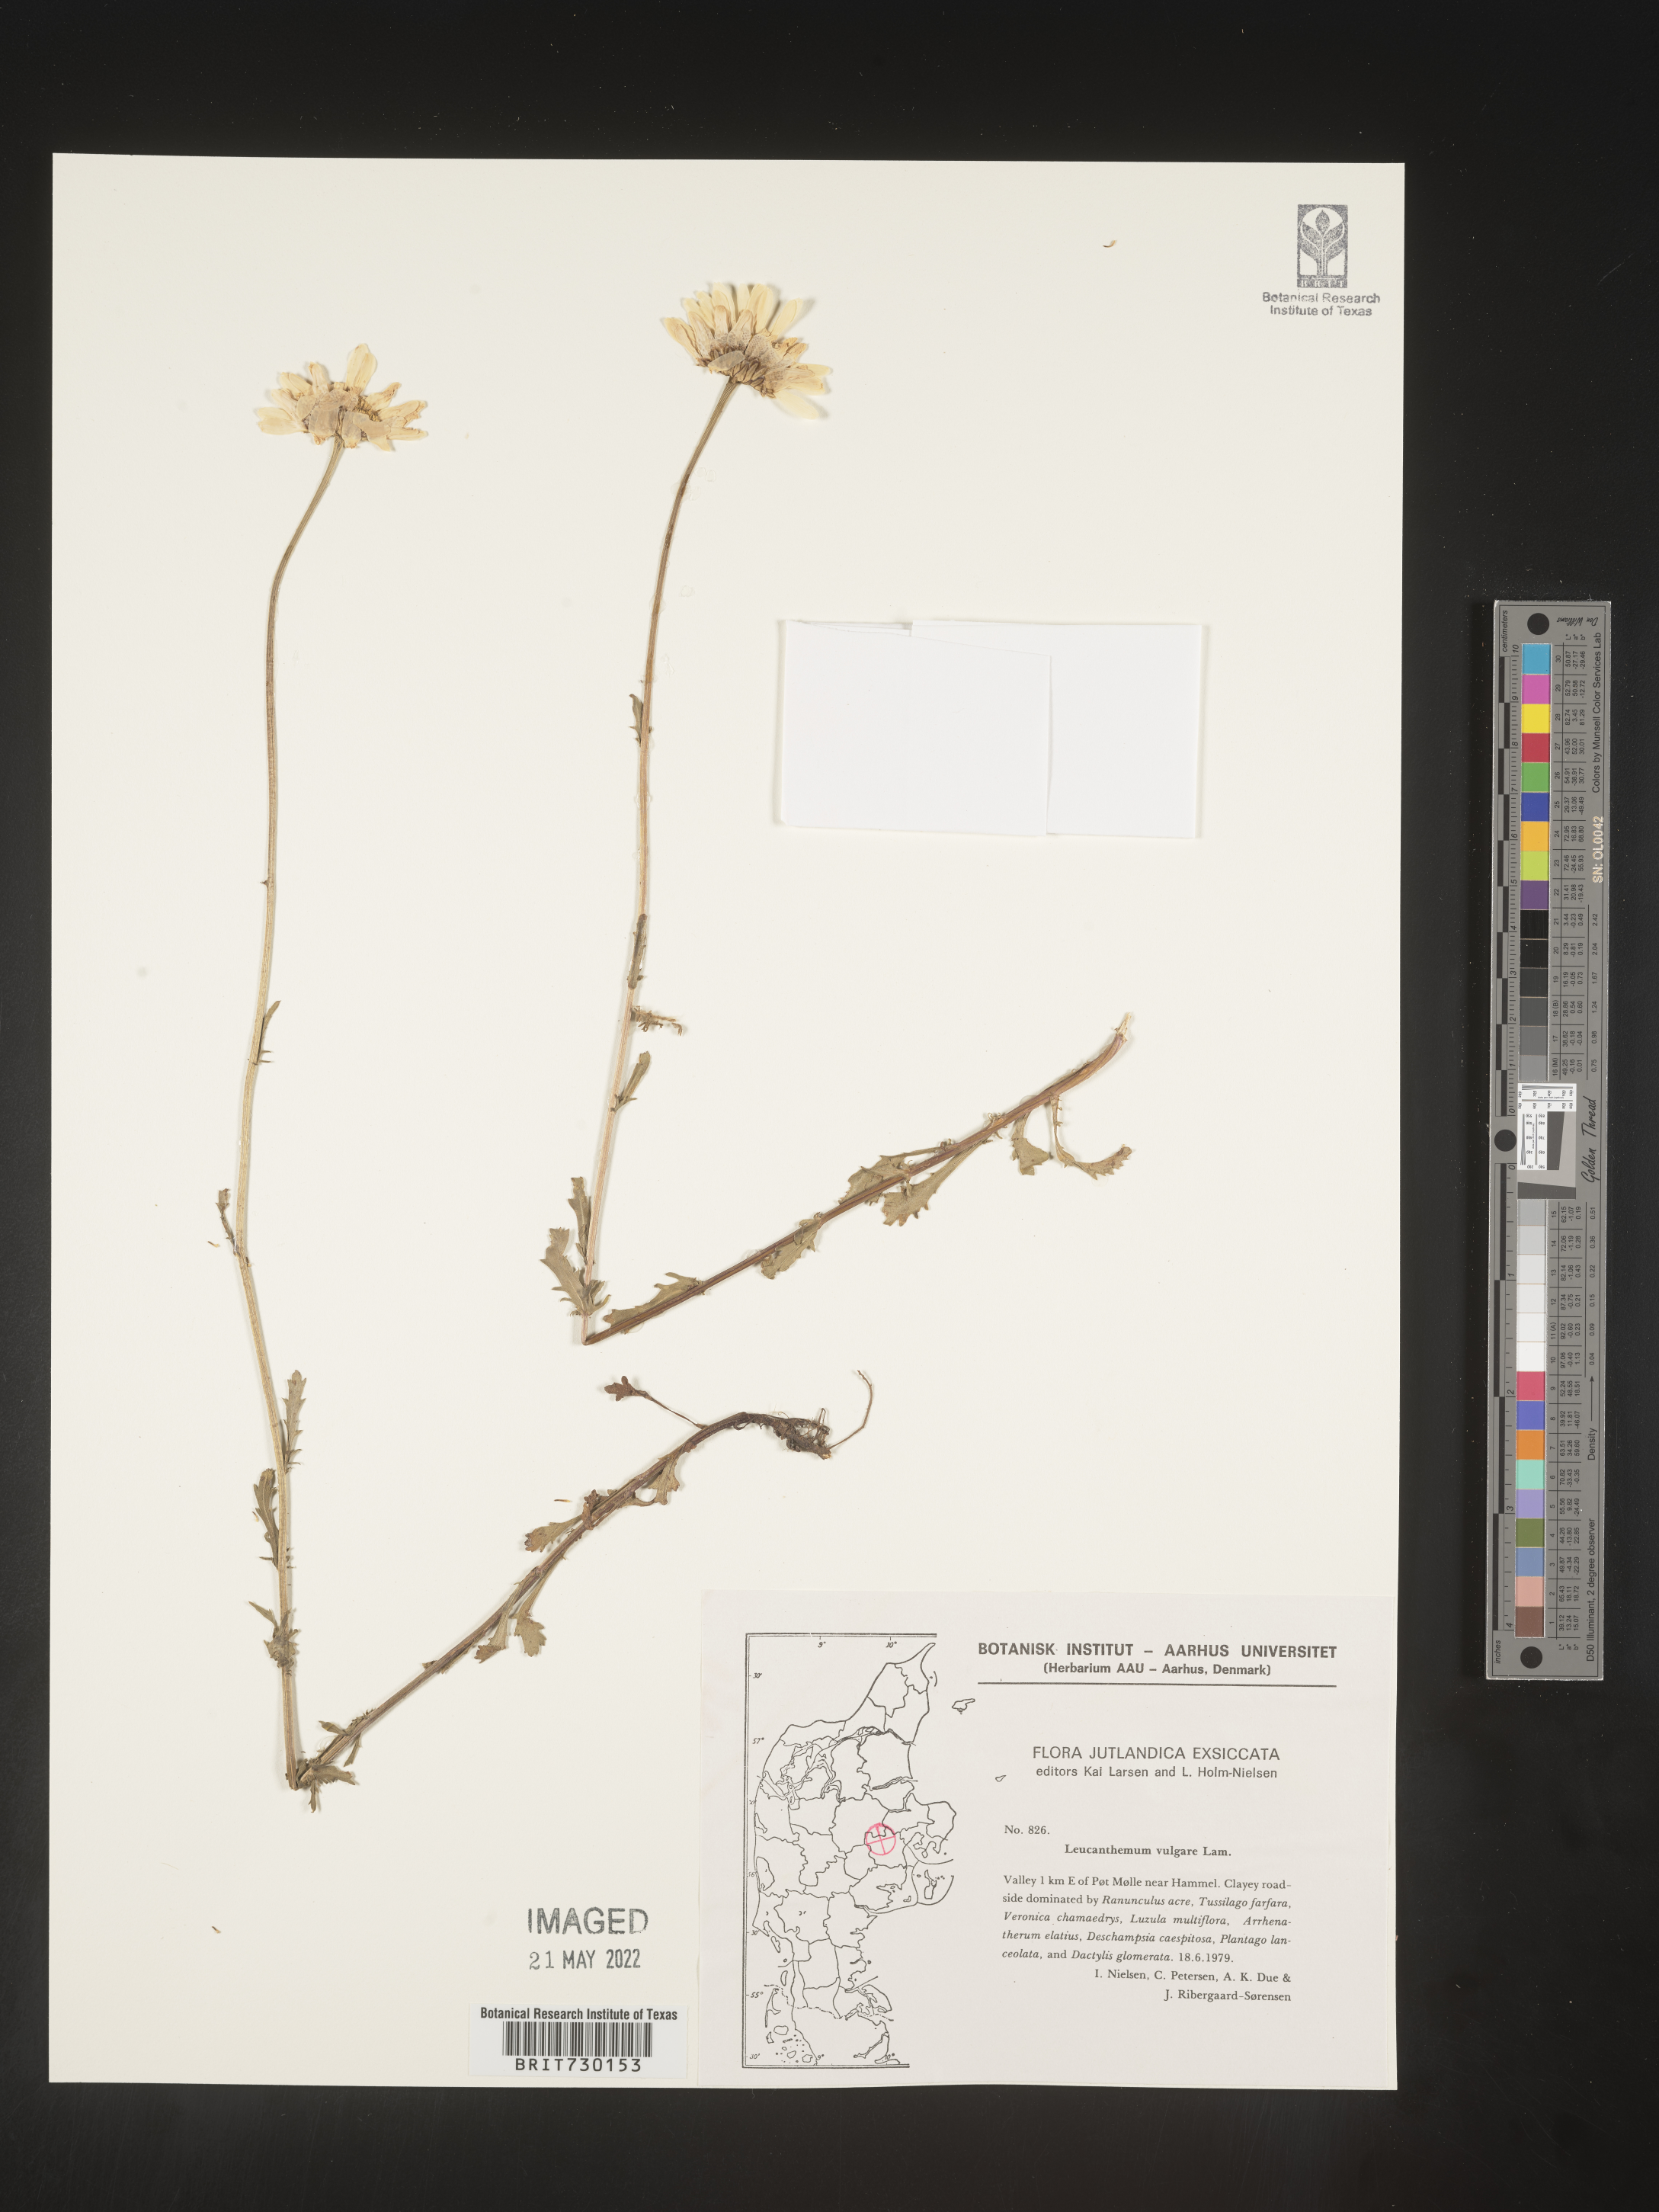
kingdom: Plantae
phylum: Tracheophyta
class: Magnoliopsida
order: Asterales
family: Asteraceae
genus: Leucanthemum
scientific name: Leucanthemum
